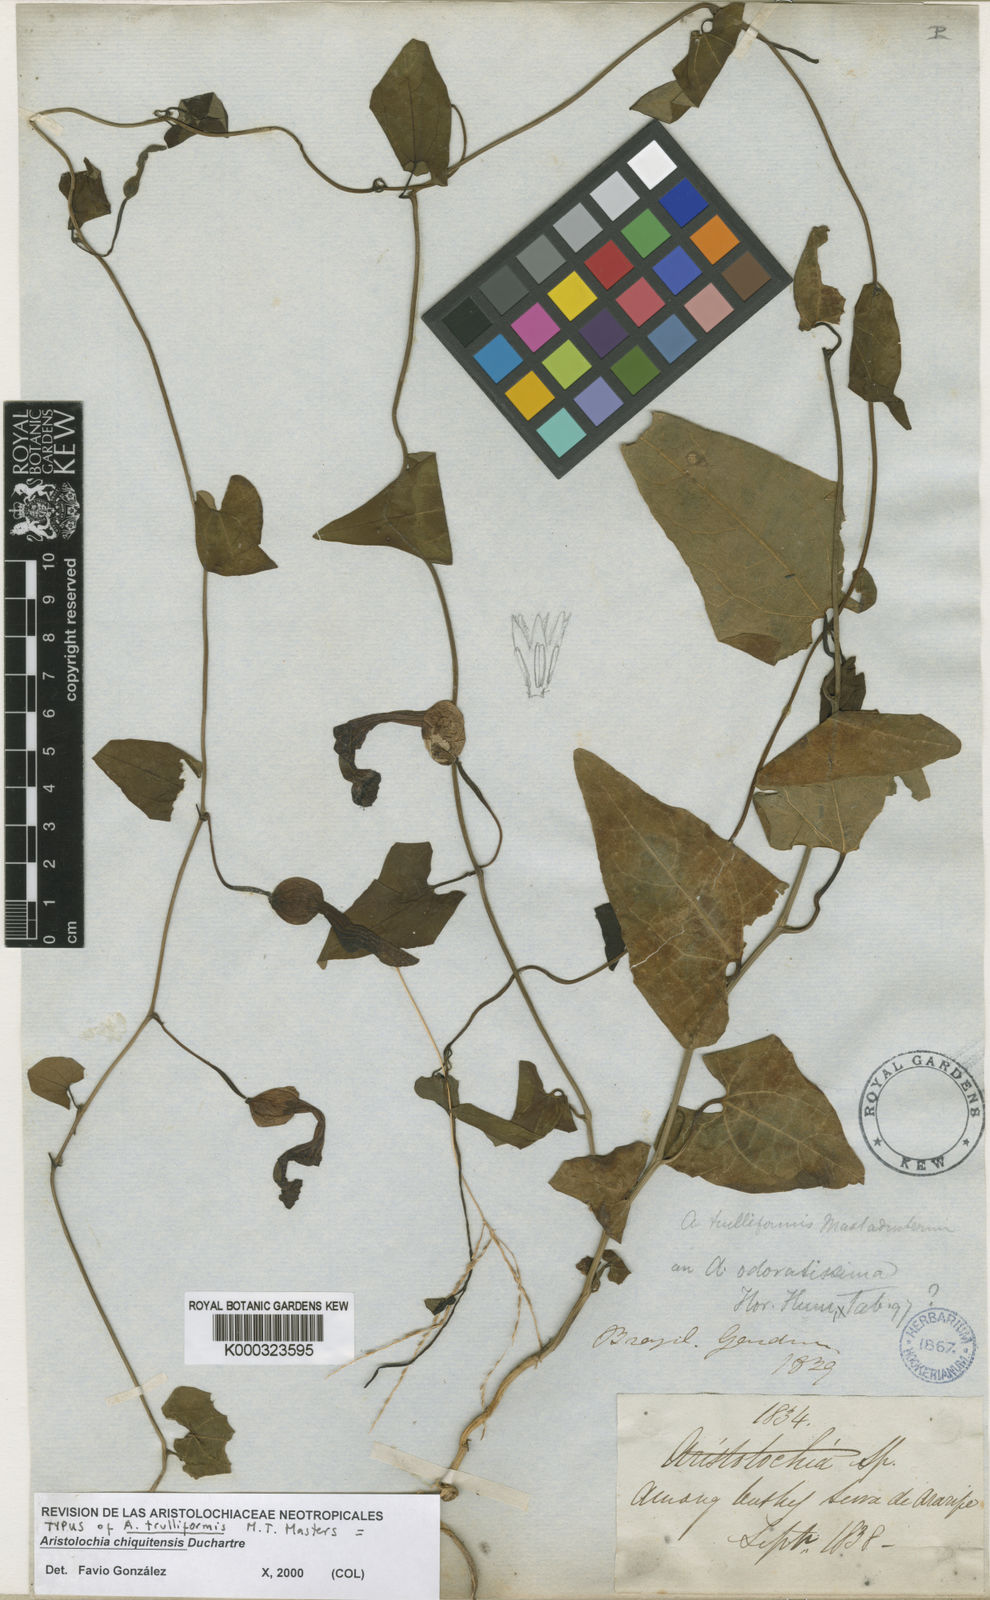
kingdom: Plantae
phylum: Tracheophyta
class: Magnoliopsida
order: Piperales
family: Aristolochiaceae
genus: Aristolochia
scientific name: Aristolochia chiquitensis
